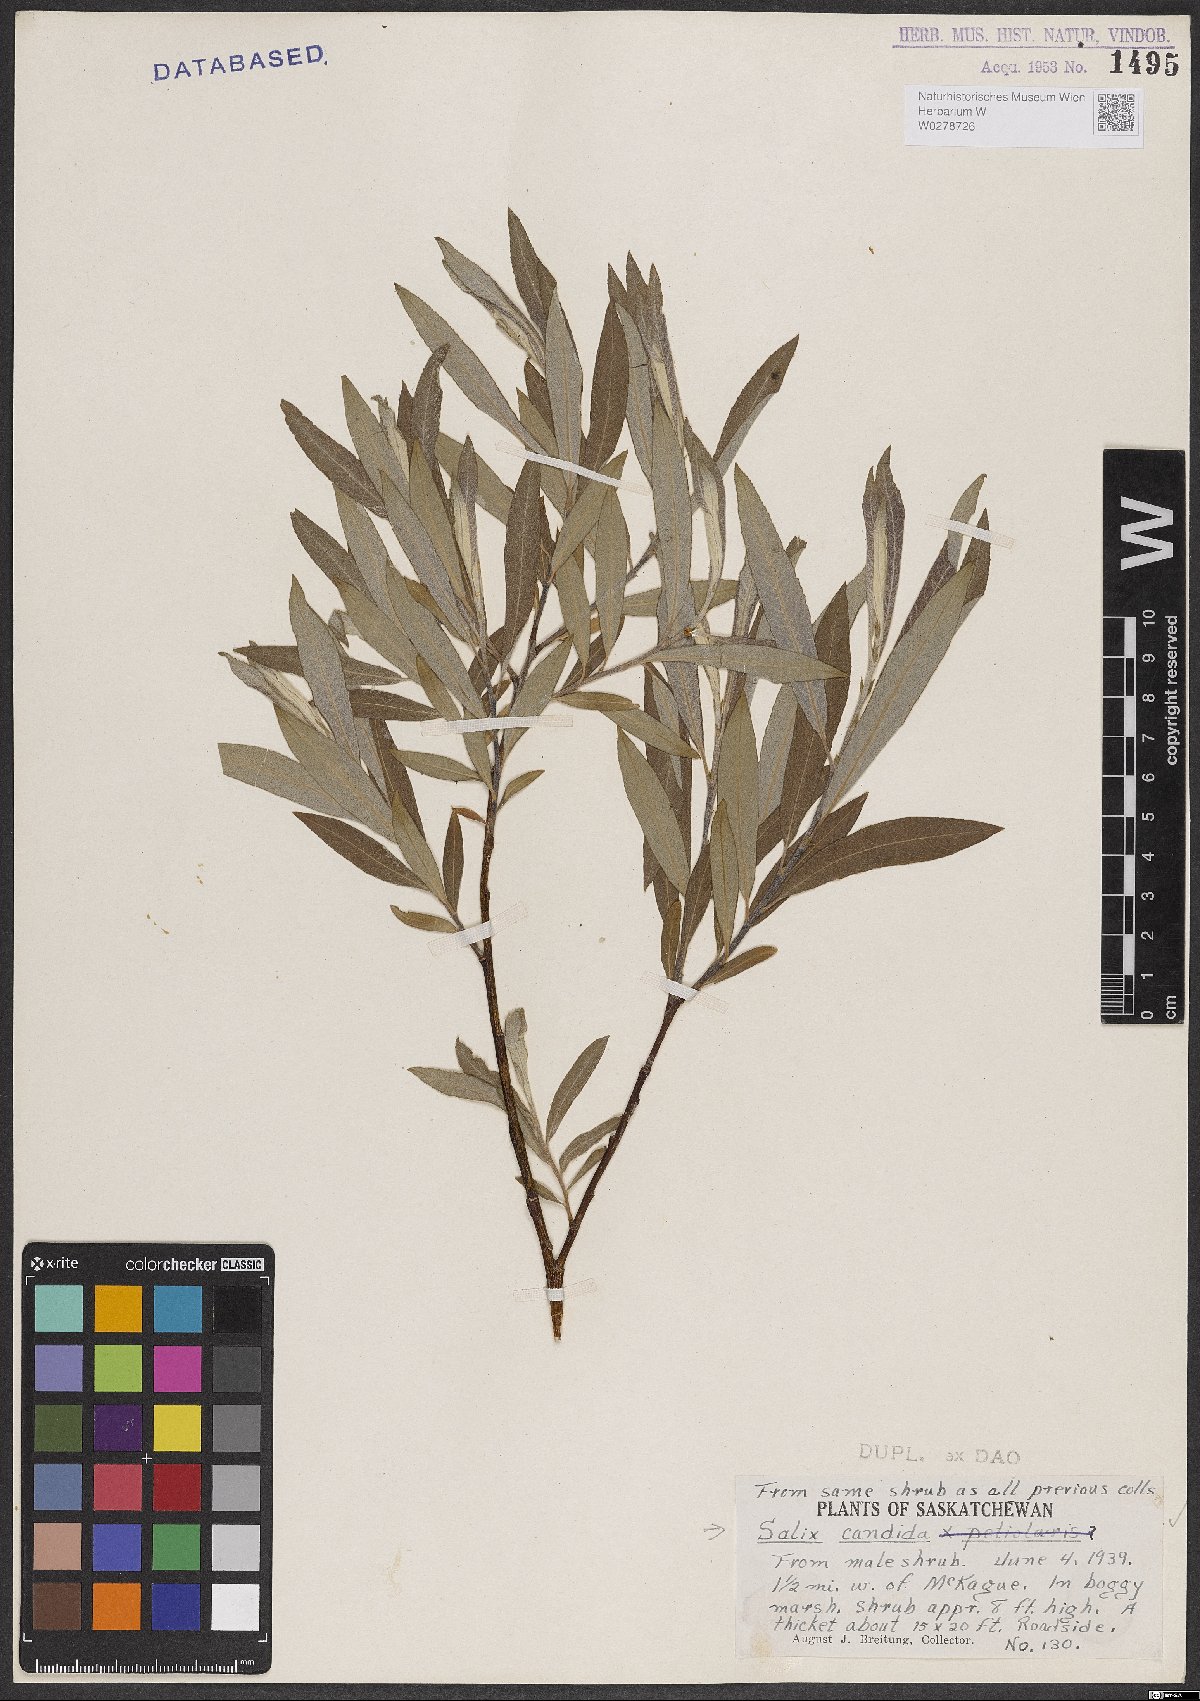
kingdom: Plantae
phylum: Tracheophyta
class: Magnoliopsida
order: Malpighiales
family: Salicaceae
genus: Salix
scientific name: Salix candida
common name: Hoary willow
